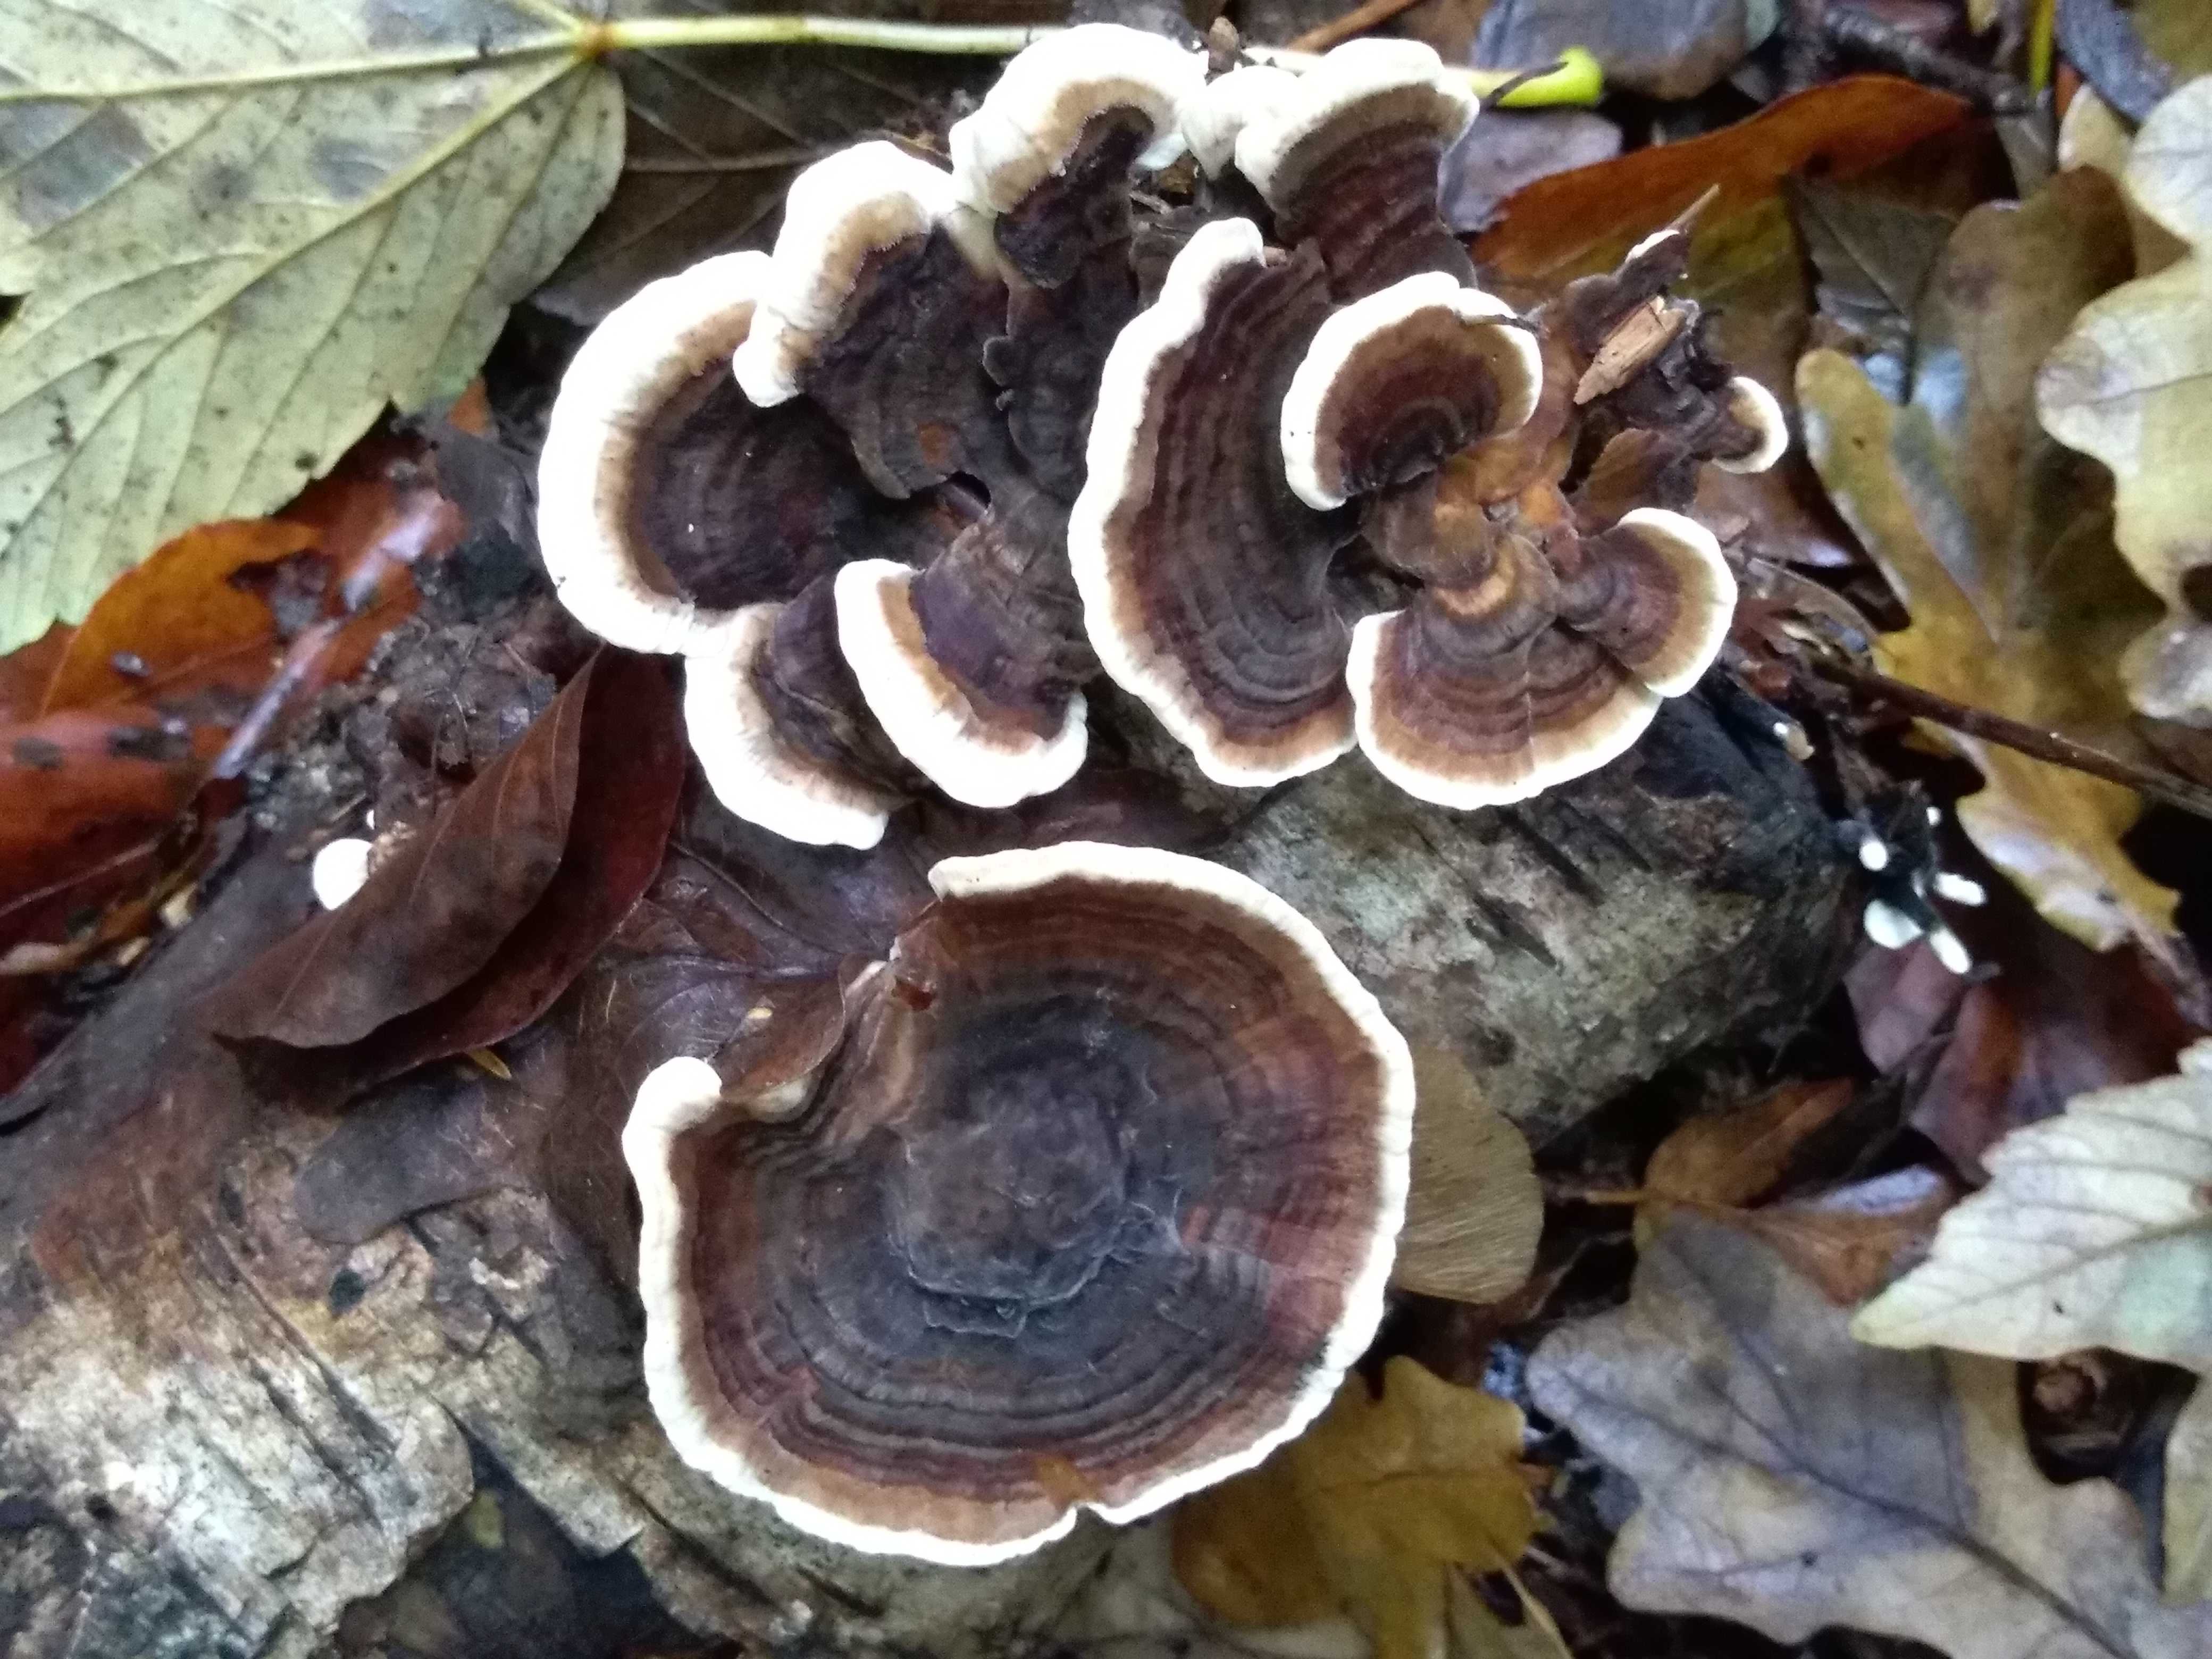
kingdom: Fungi
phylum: Basidiomycota
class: Agaricomycetes
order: Polyporales
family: Polyporaceae
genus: Trametes
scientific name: Trametes versicolor
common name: broget læderporesvamp
